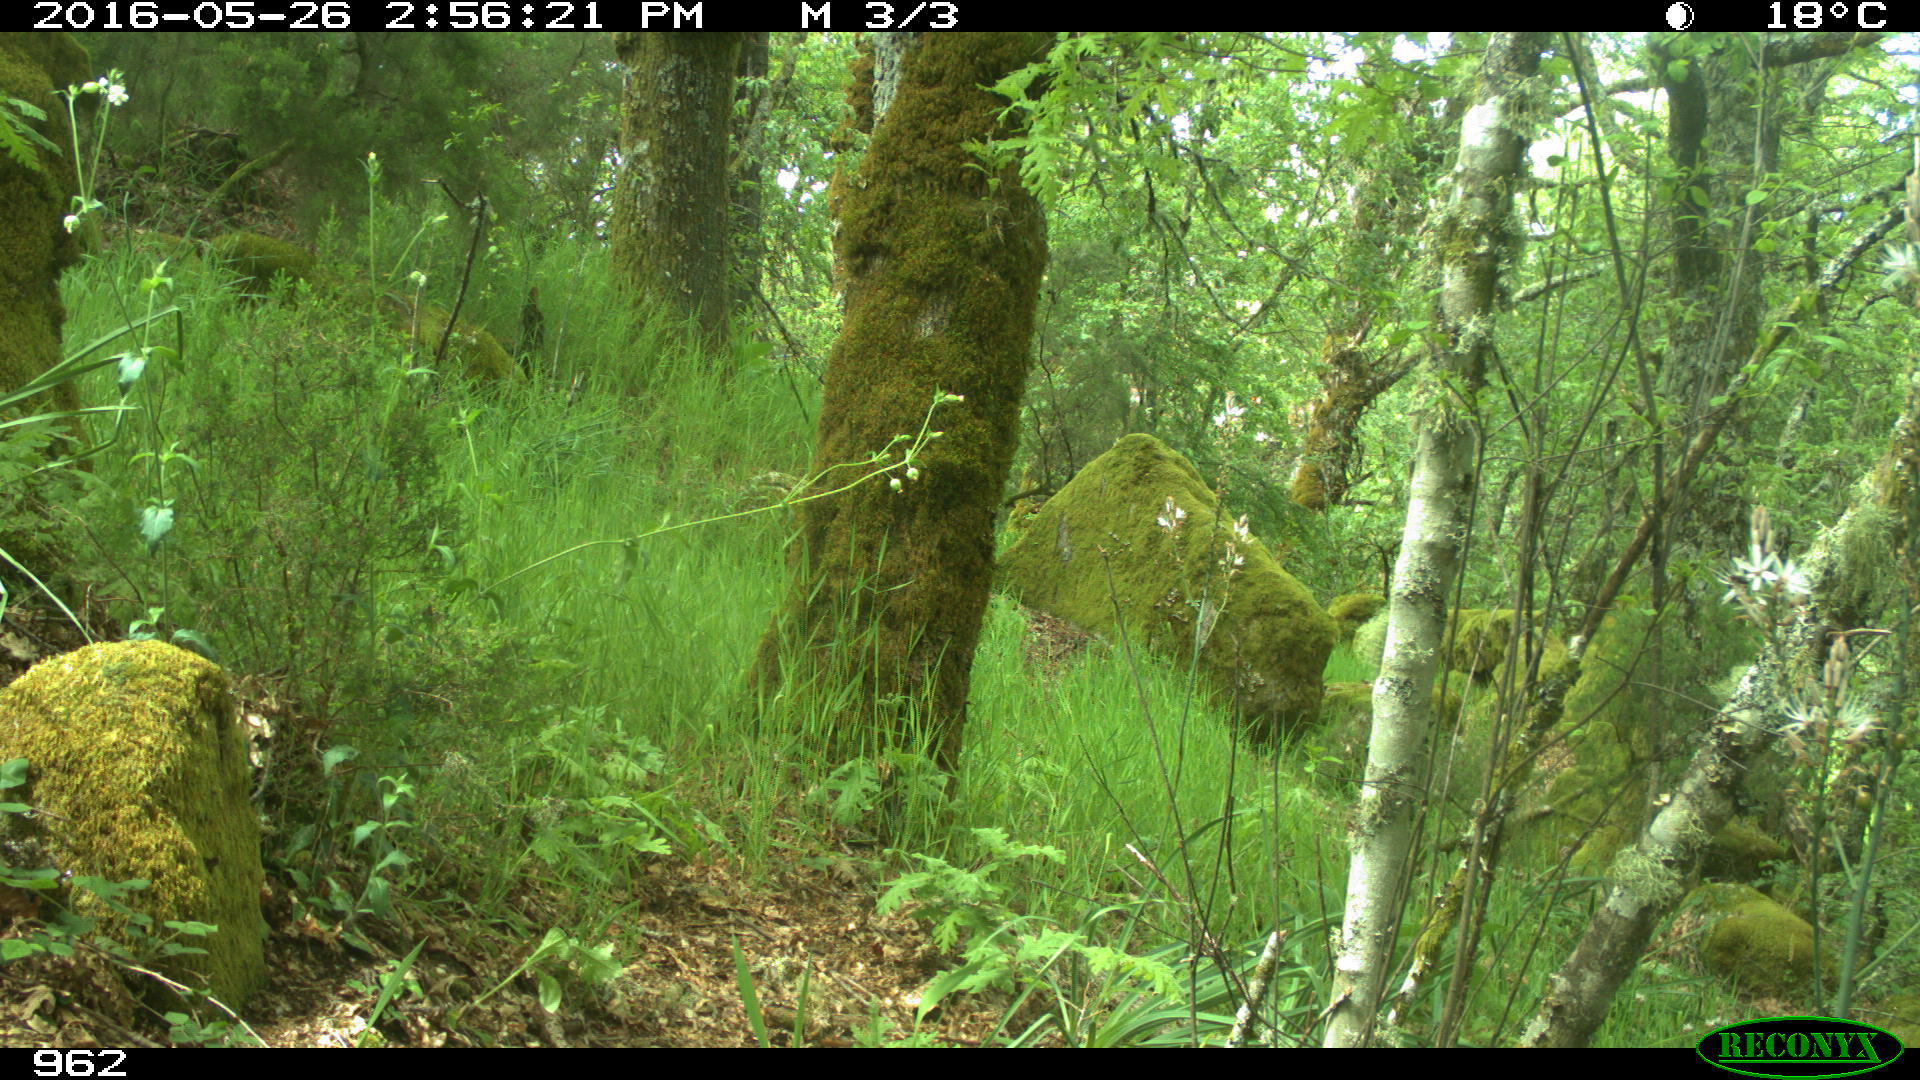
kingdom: Animalia
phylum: Chordata
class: Mammalia
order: Artiodactyla
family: Cervidae
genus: Capreolus
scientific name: Capreolus capreolus
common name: Western roe deer
